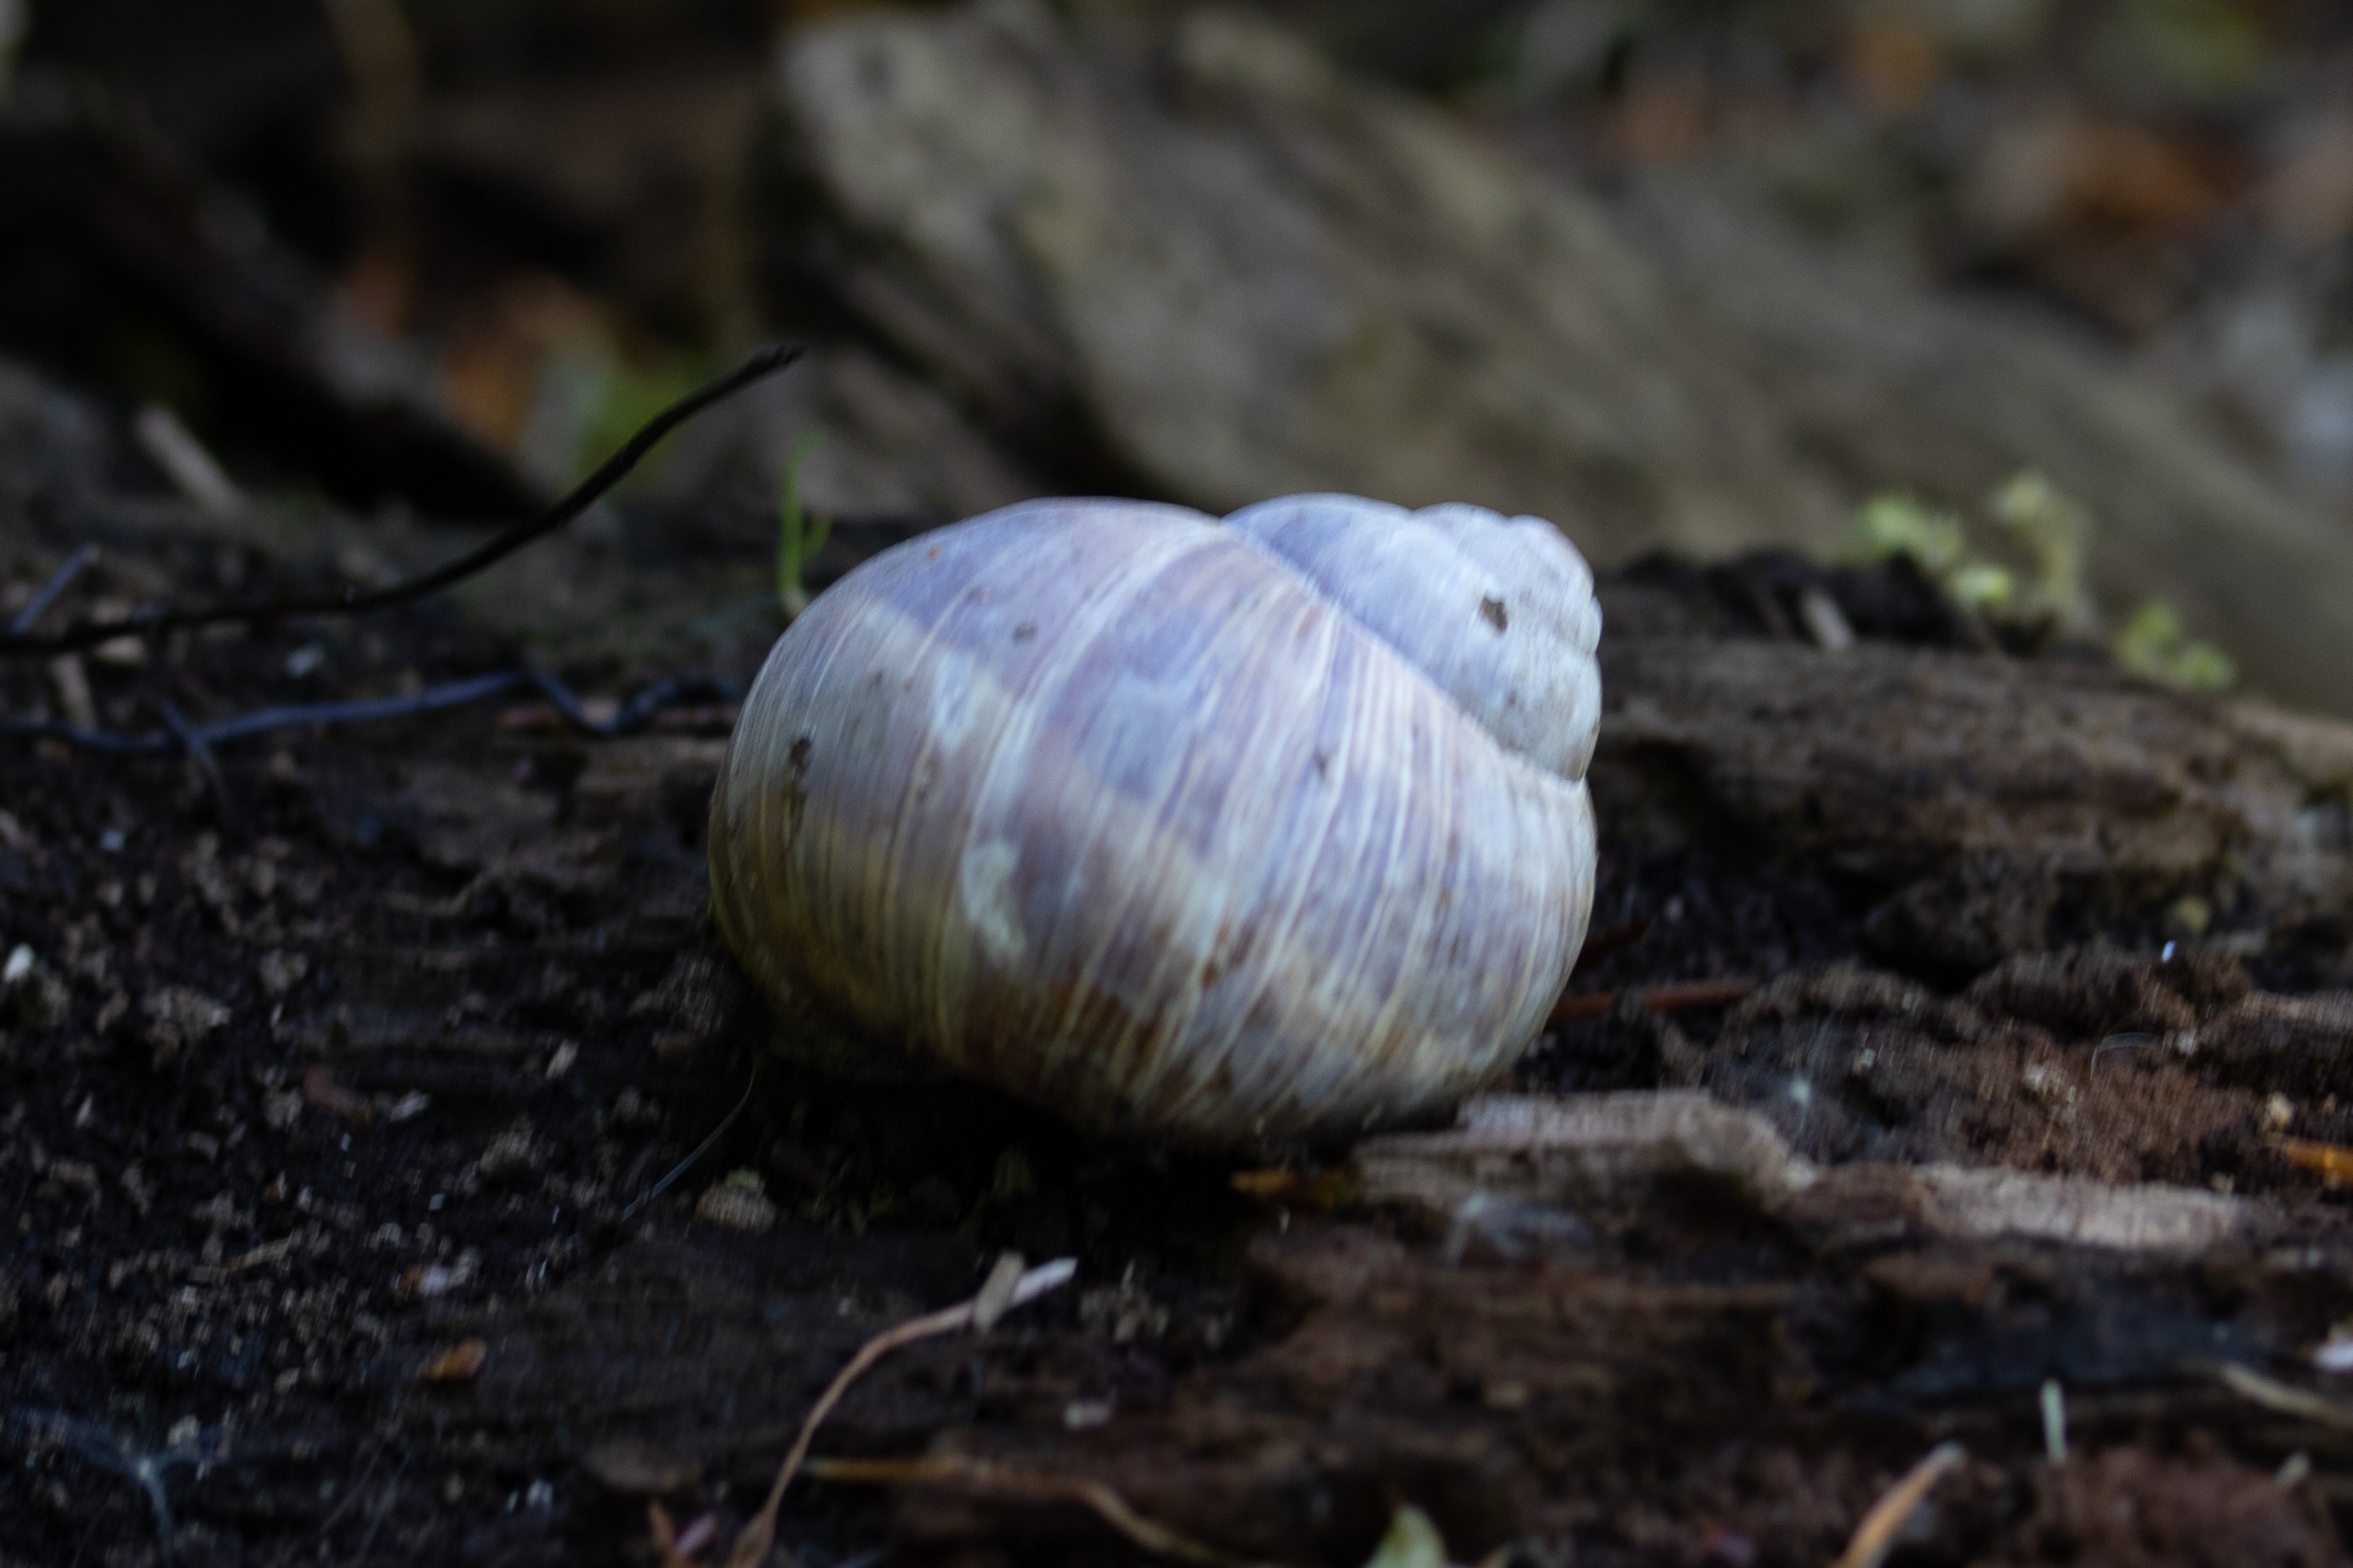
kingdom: Animalia
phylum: Mollusca
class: Gastropoda
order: Stylommatophora
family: Helicidae
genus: Helix
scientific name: Helix pomatia
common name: Vinbjergsnegl
